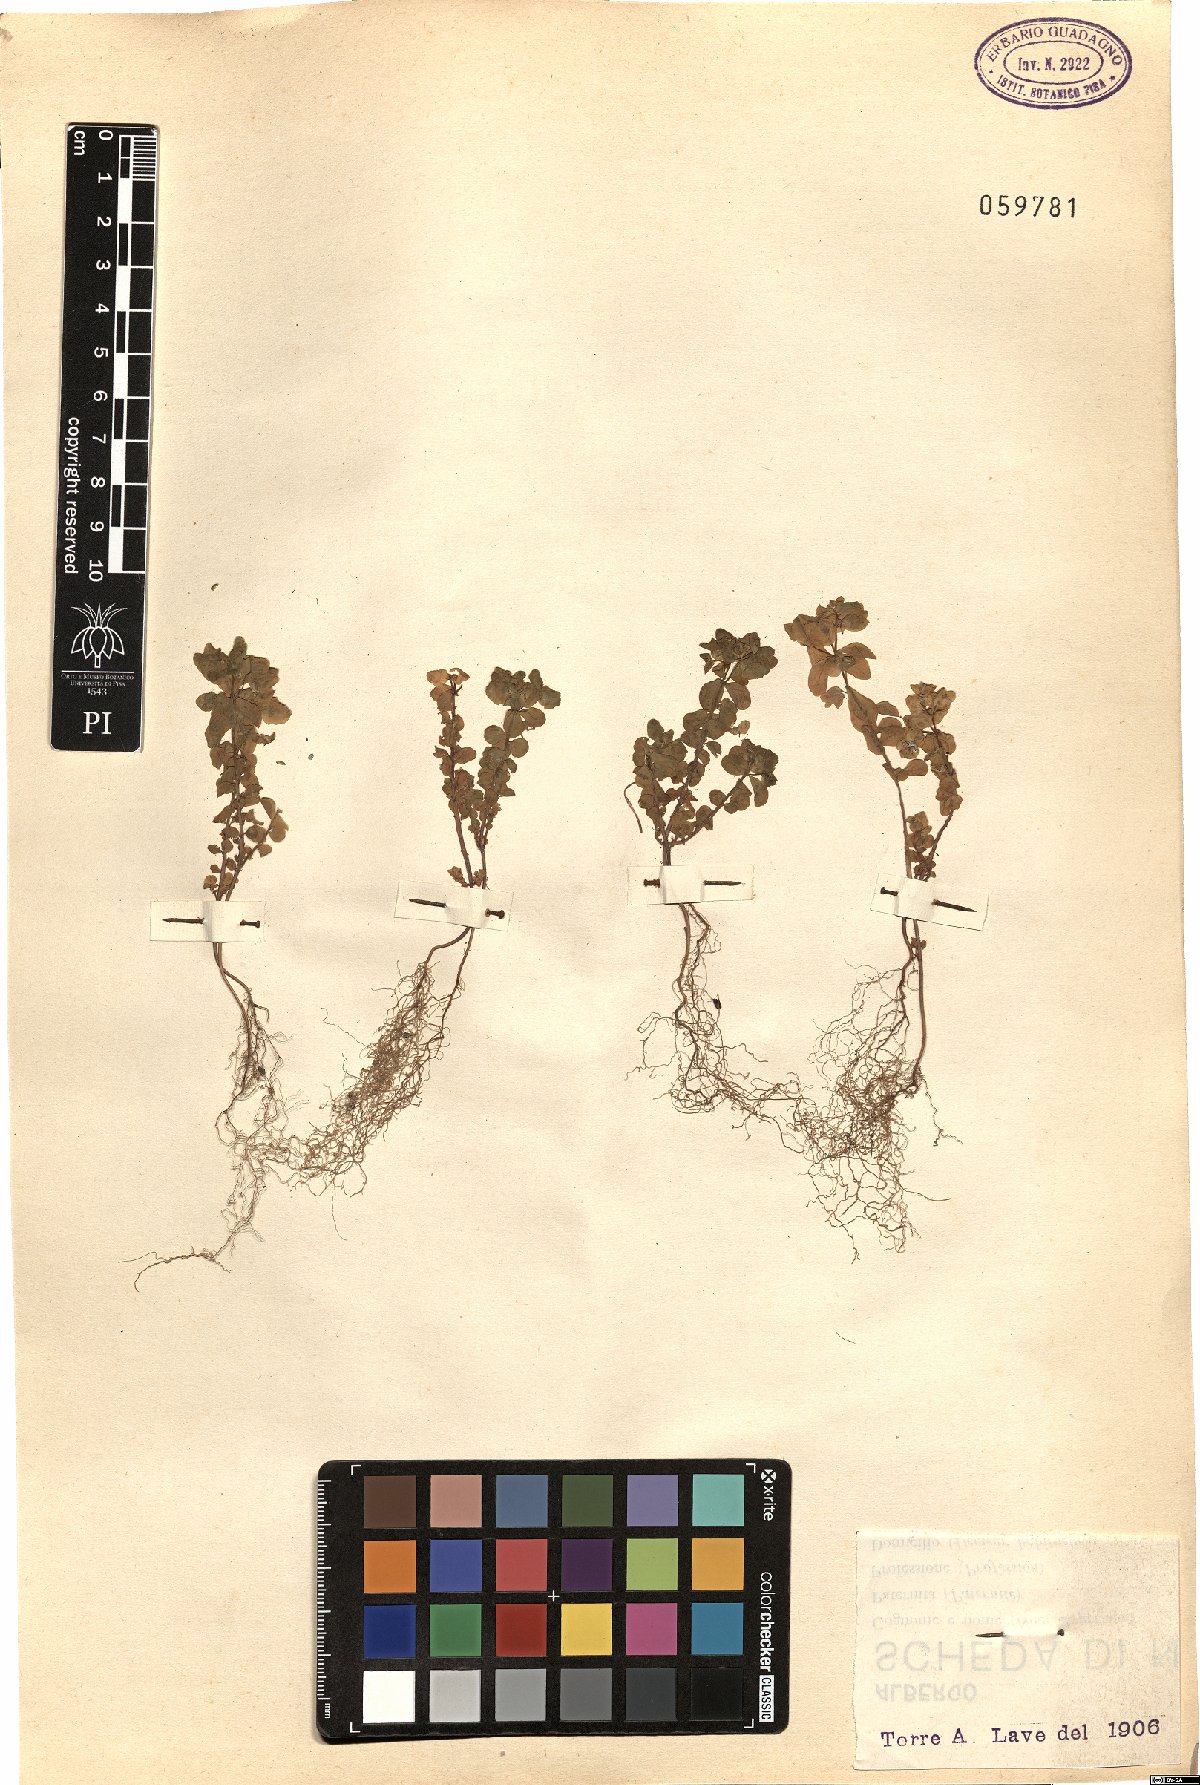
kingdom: Plantae
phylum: Tracheophyta
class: Magnoliopsida
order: Malpighiales
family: Euphorbiaceae
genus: Euphorbia
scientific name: Euphorbia helioscopia
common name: Sun spurge
